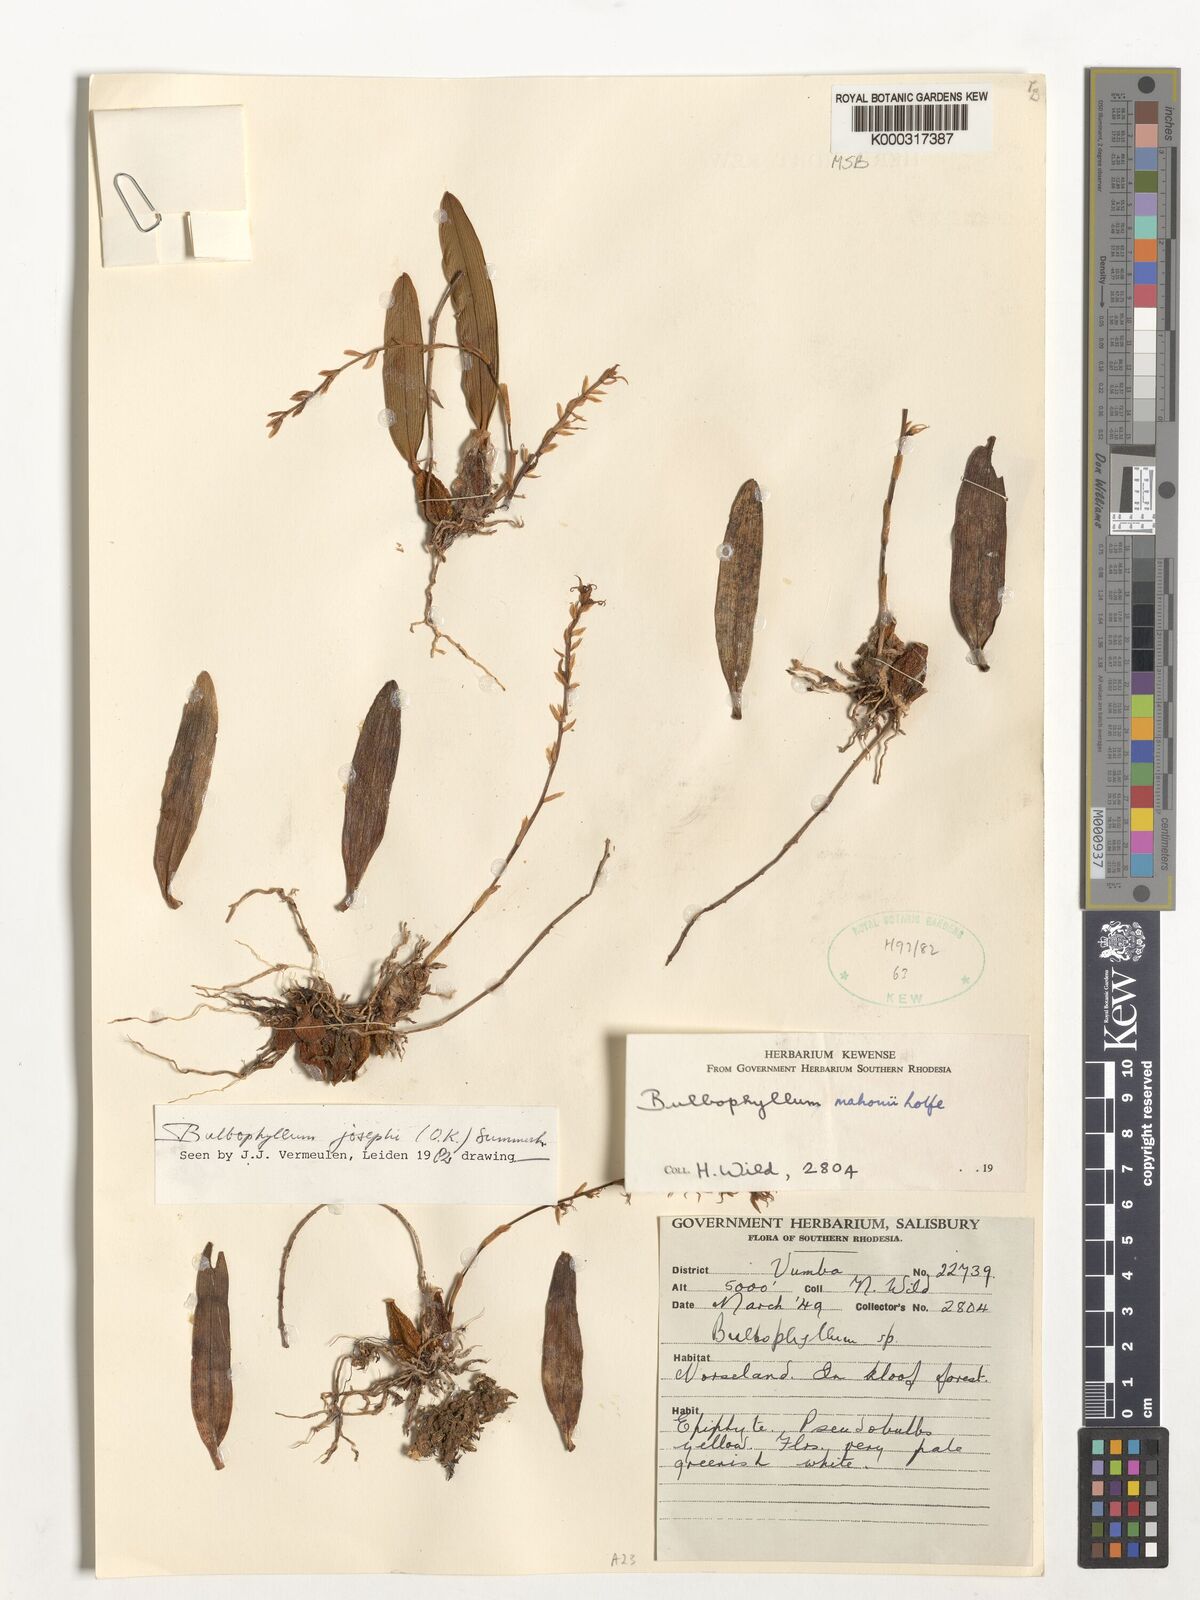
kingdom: Plantae
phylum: Tracheophyta
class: Liliopsida
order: Asparagales
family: Orchidaceae
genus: Bulbophyllum
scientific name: Bulbophyllum josephi
